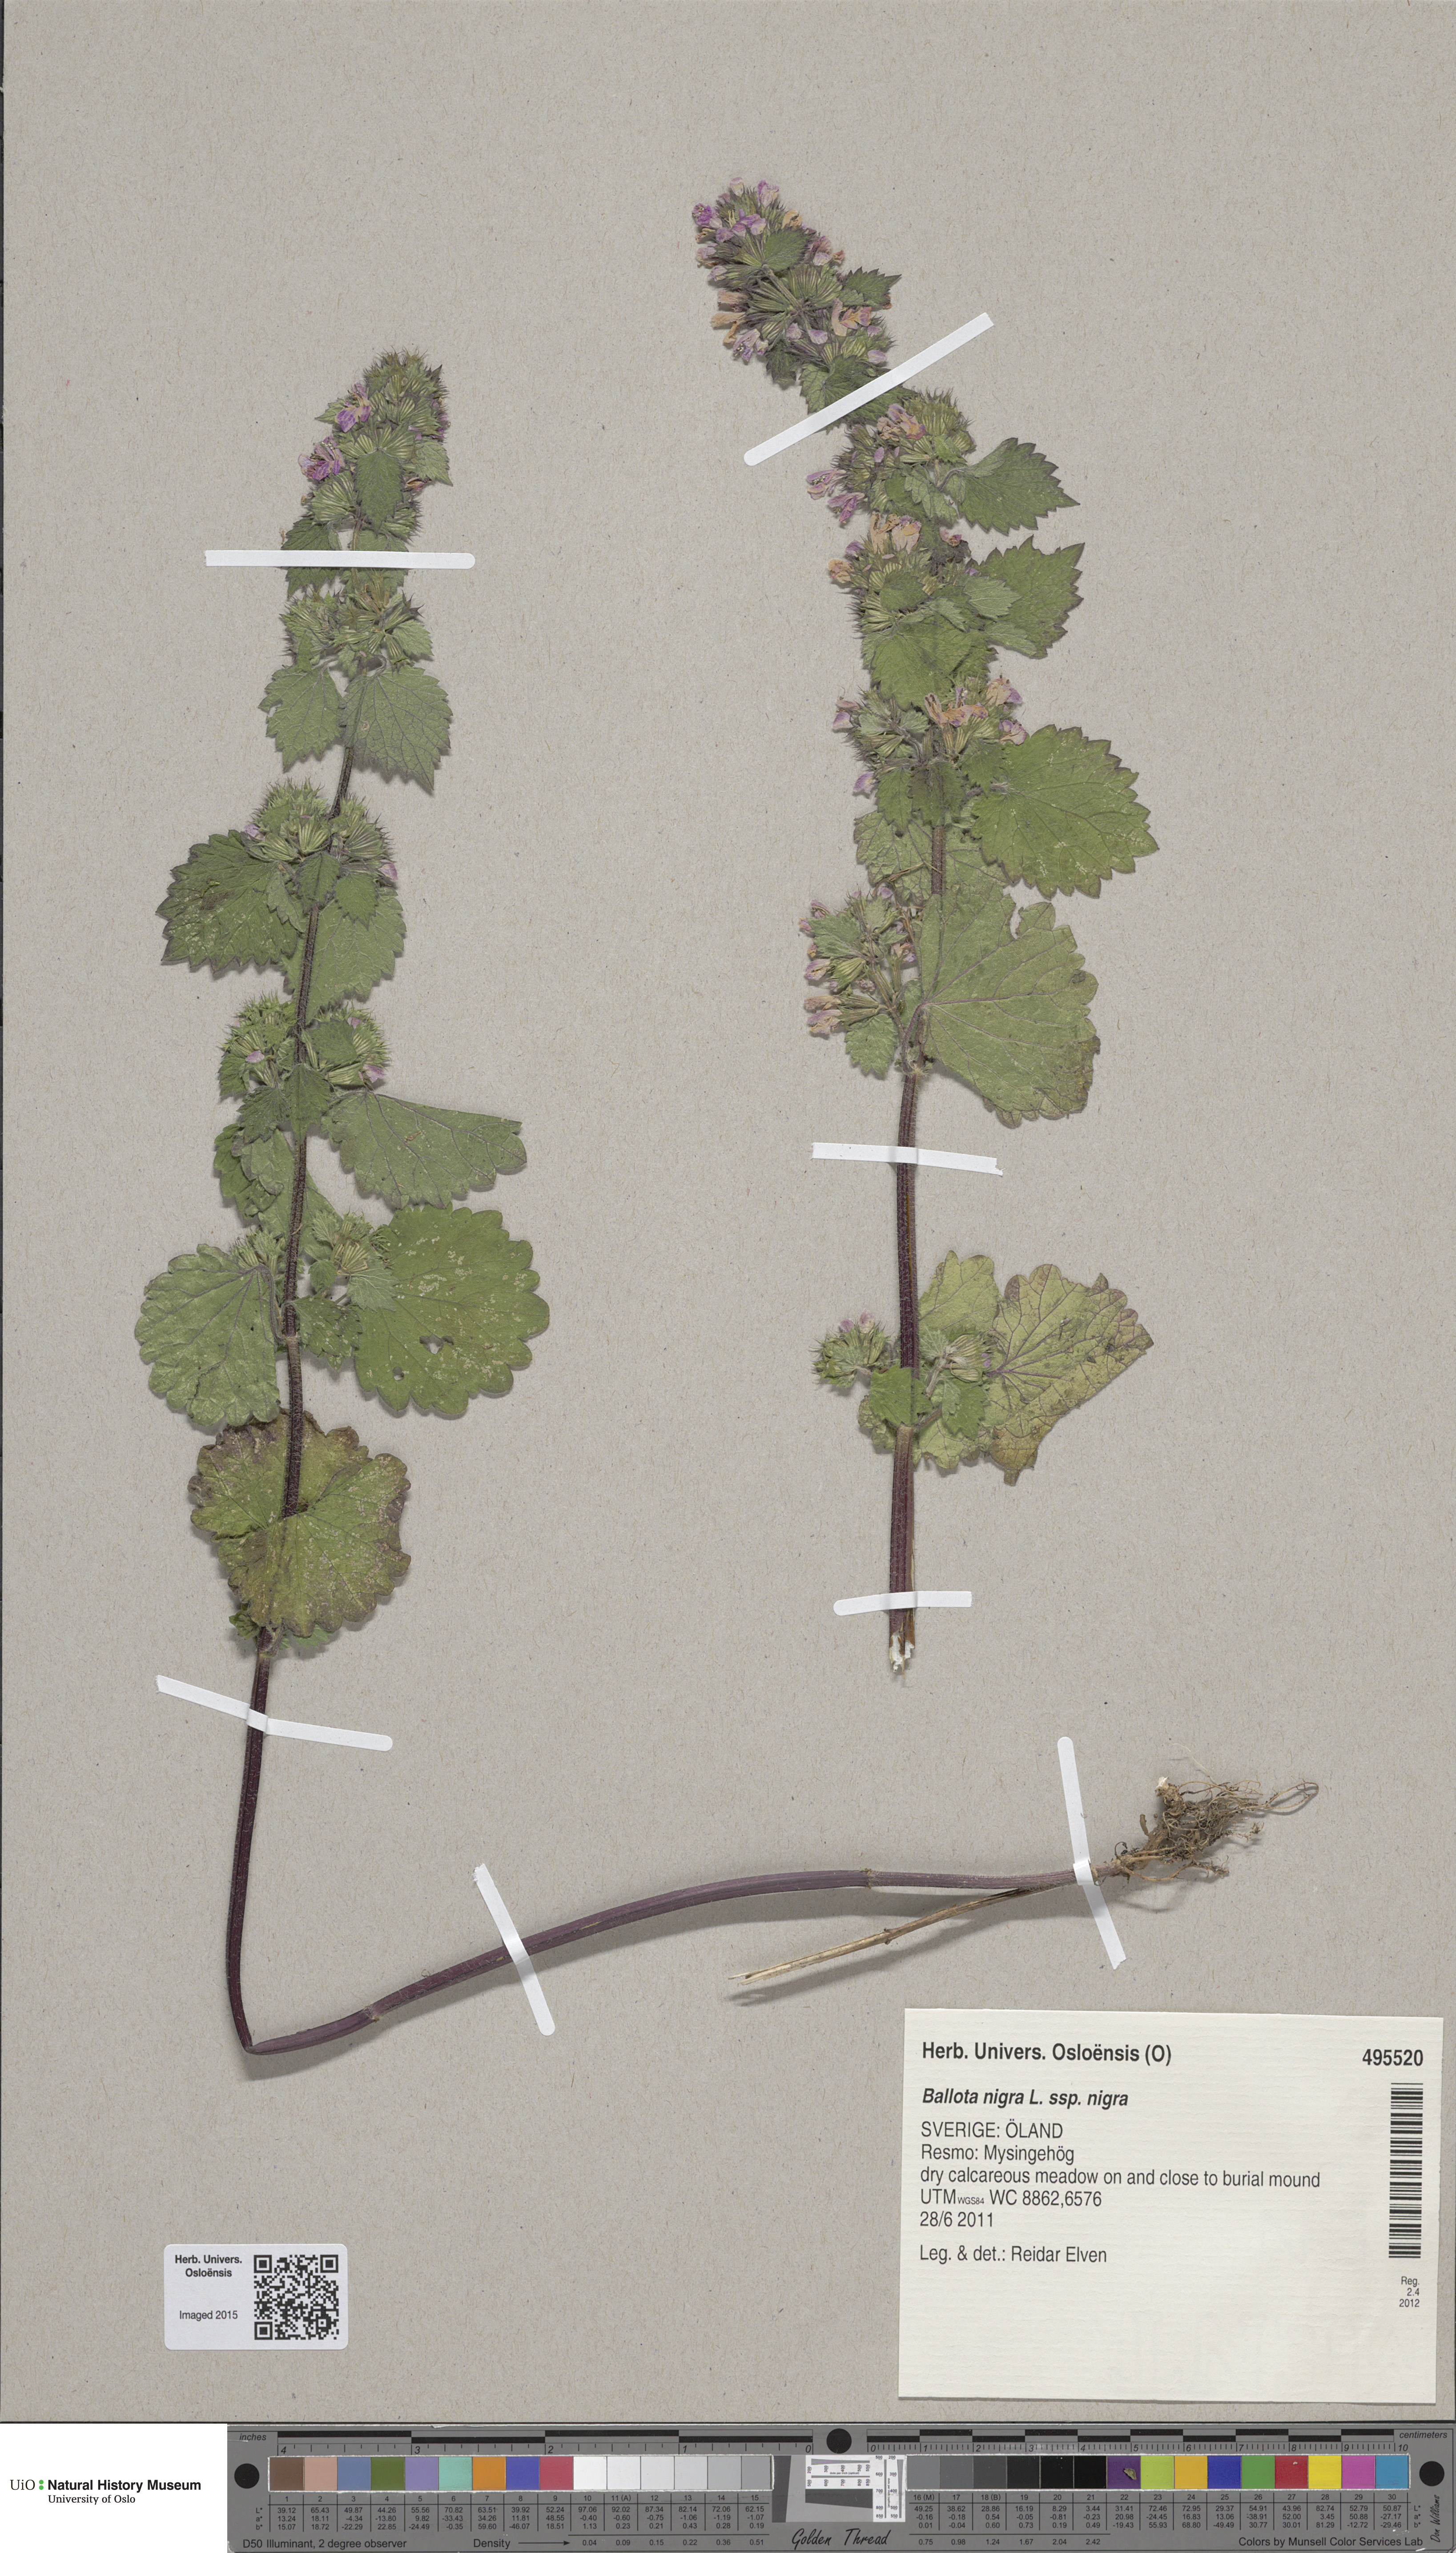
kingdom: Plantae
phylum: Tracheophyta
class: Magnoliopsida
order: Lamiales
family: Lamiaceae
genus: Ballota
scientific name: Ballota nigra
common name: Black horehound
